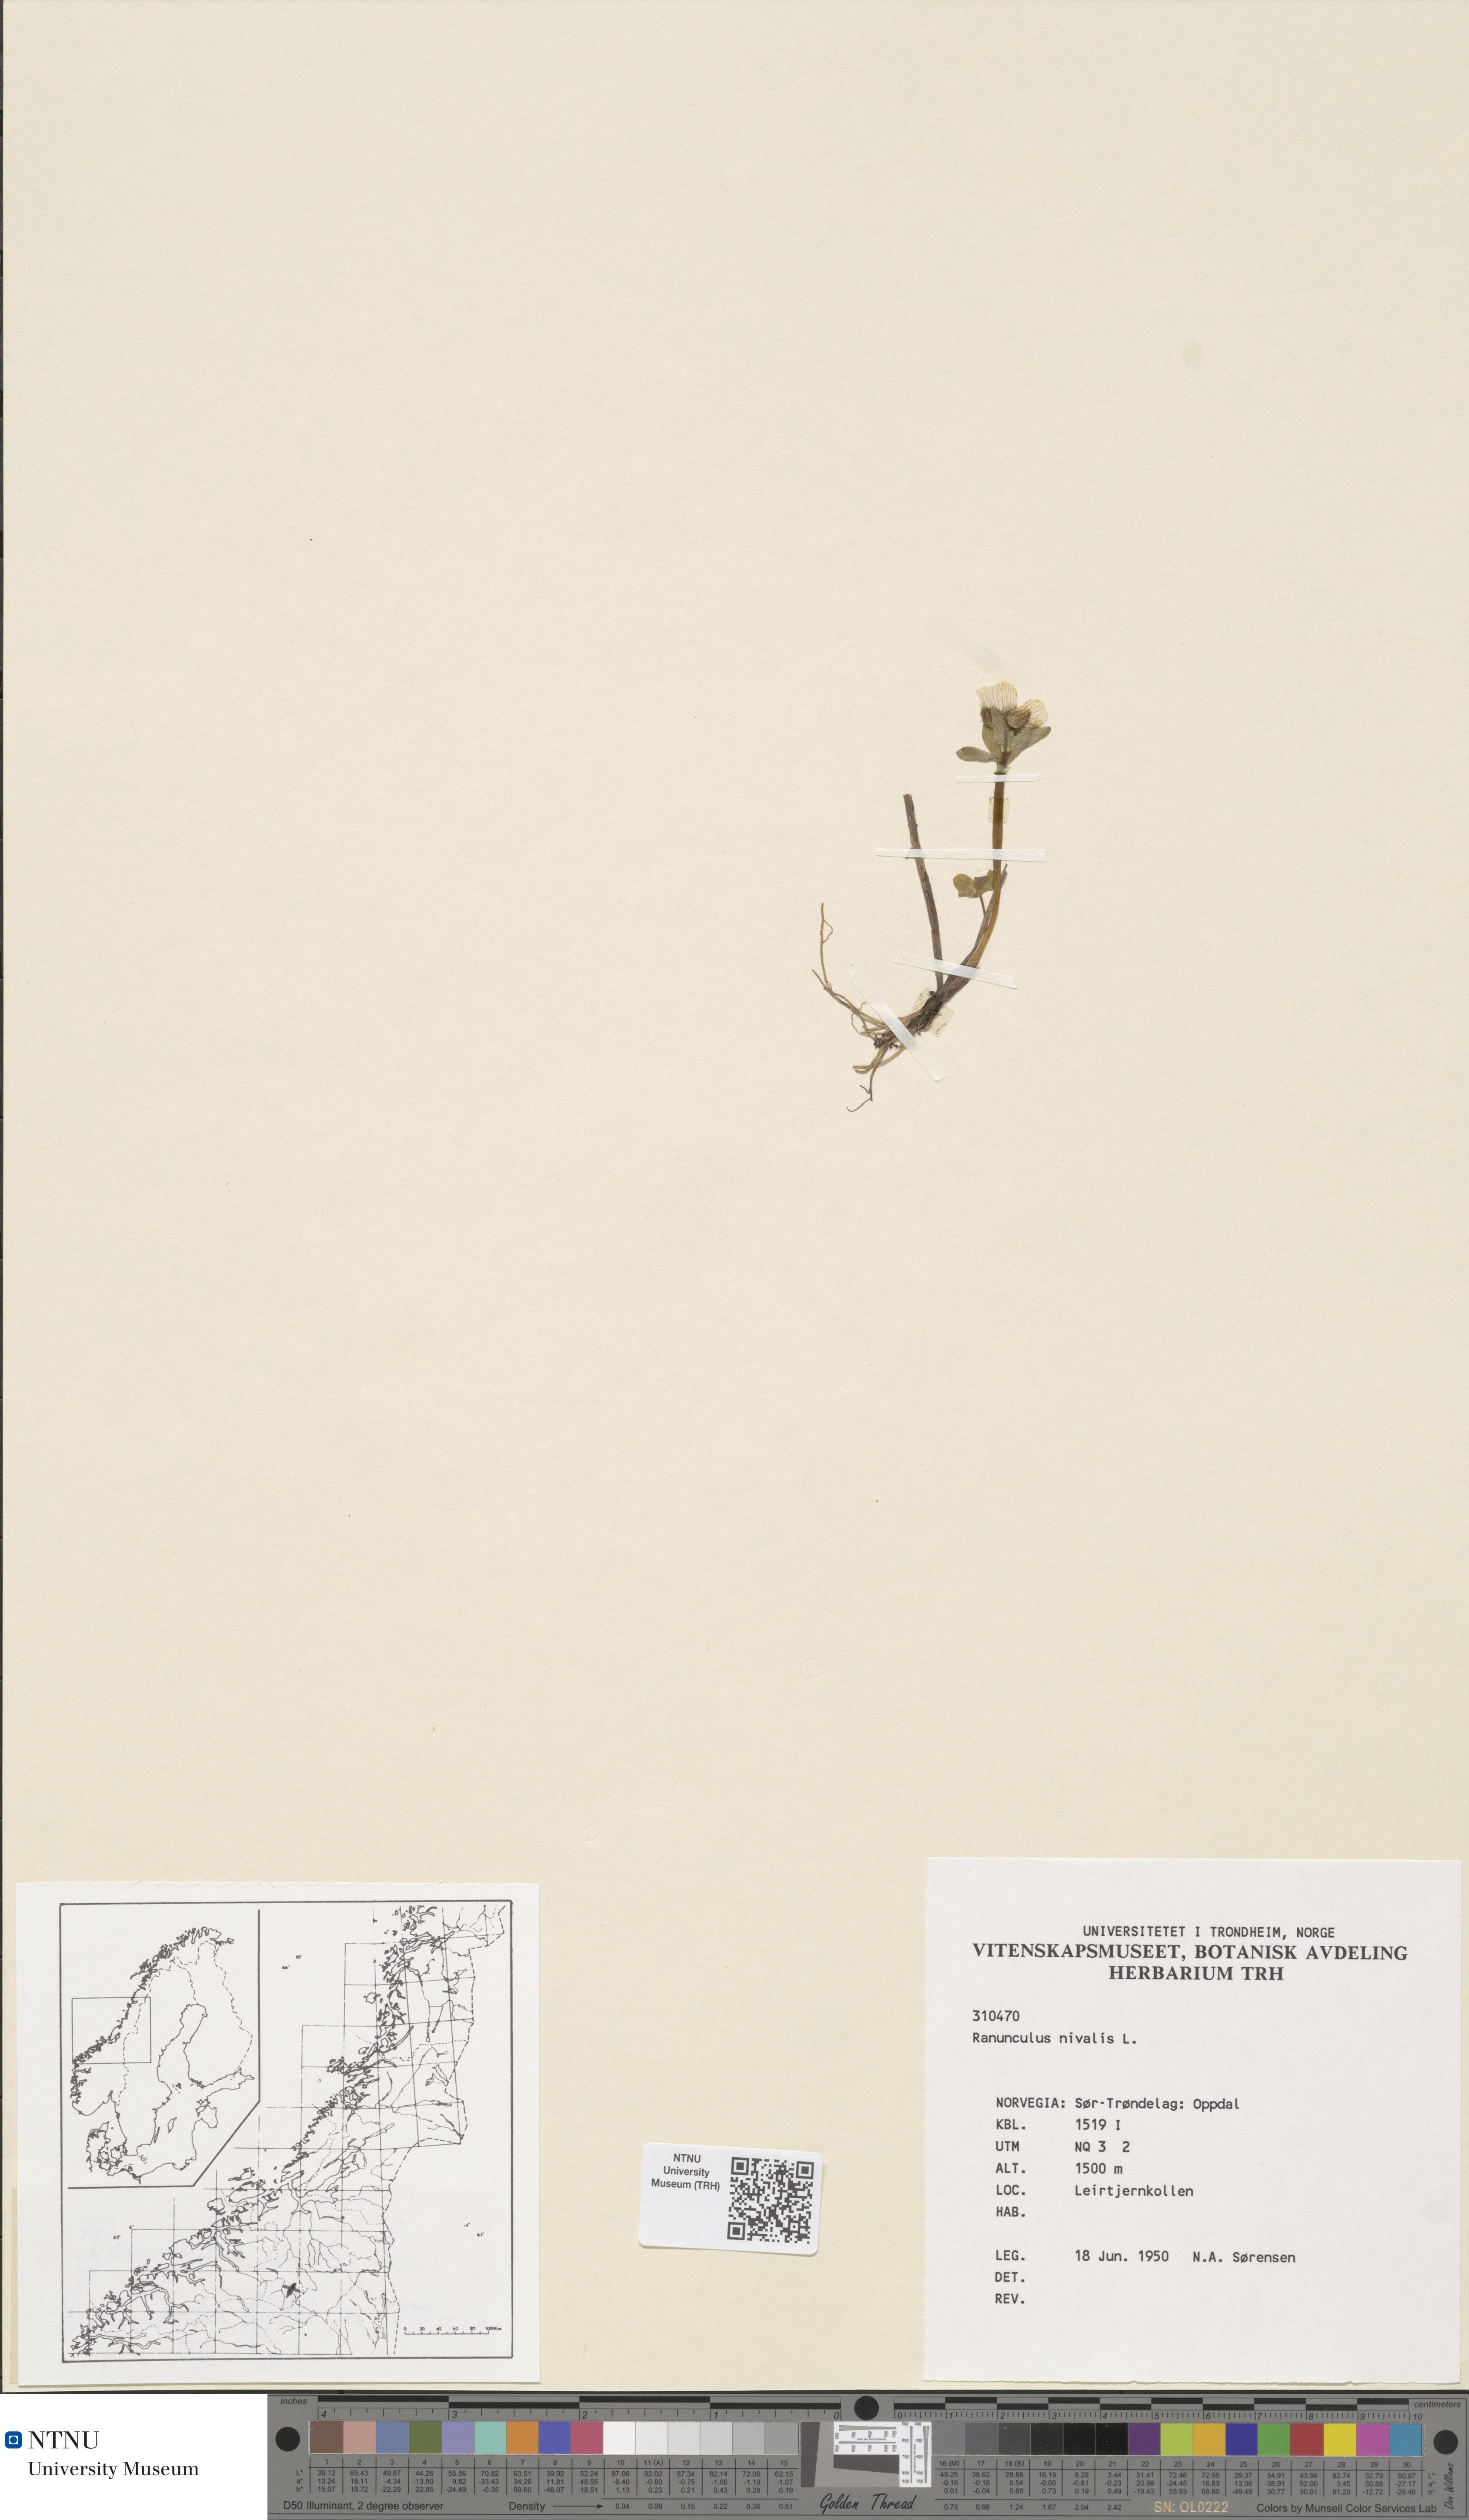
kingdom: Plantae
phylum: Tracheophyta
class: Magnoliopsida
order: Ranunculales
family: Ranunculaceae
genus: Ranunculus
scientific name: Ranunculus nivalis
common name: Snow buttercup
